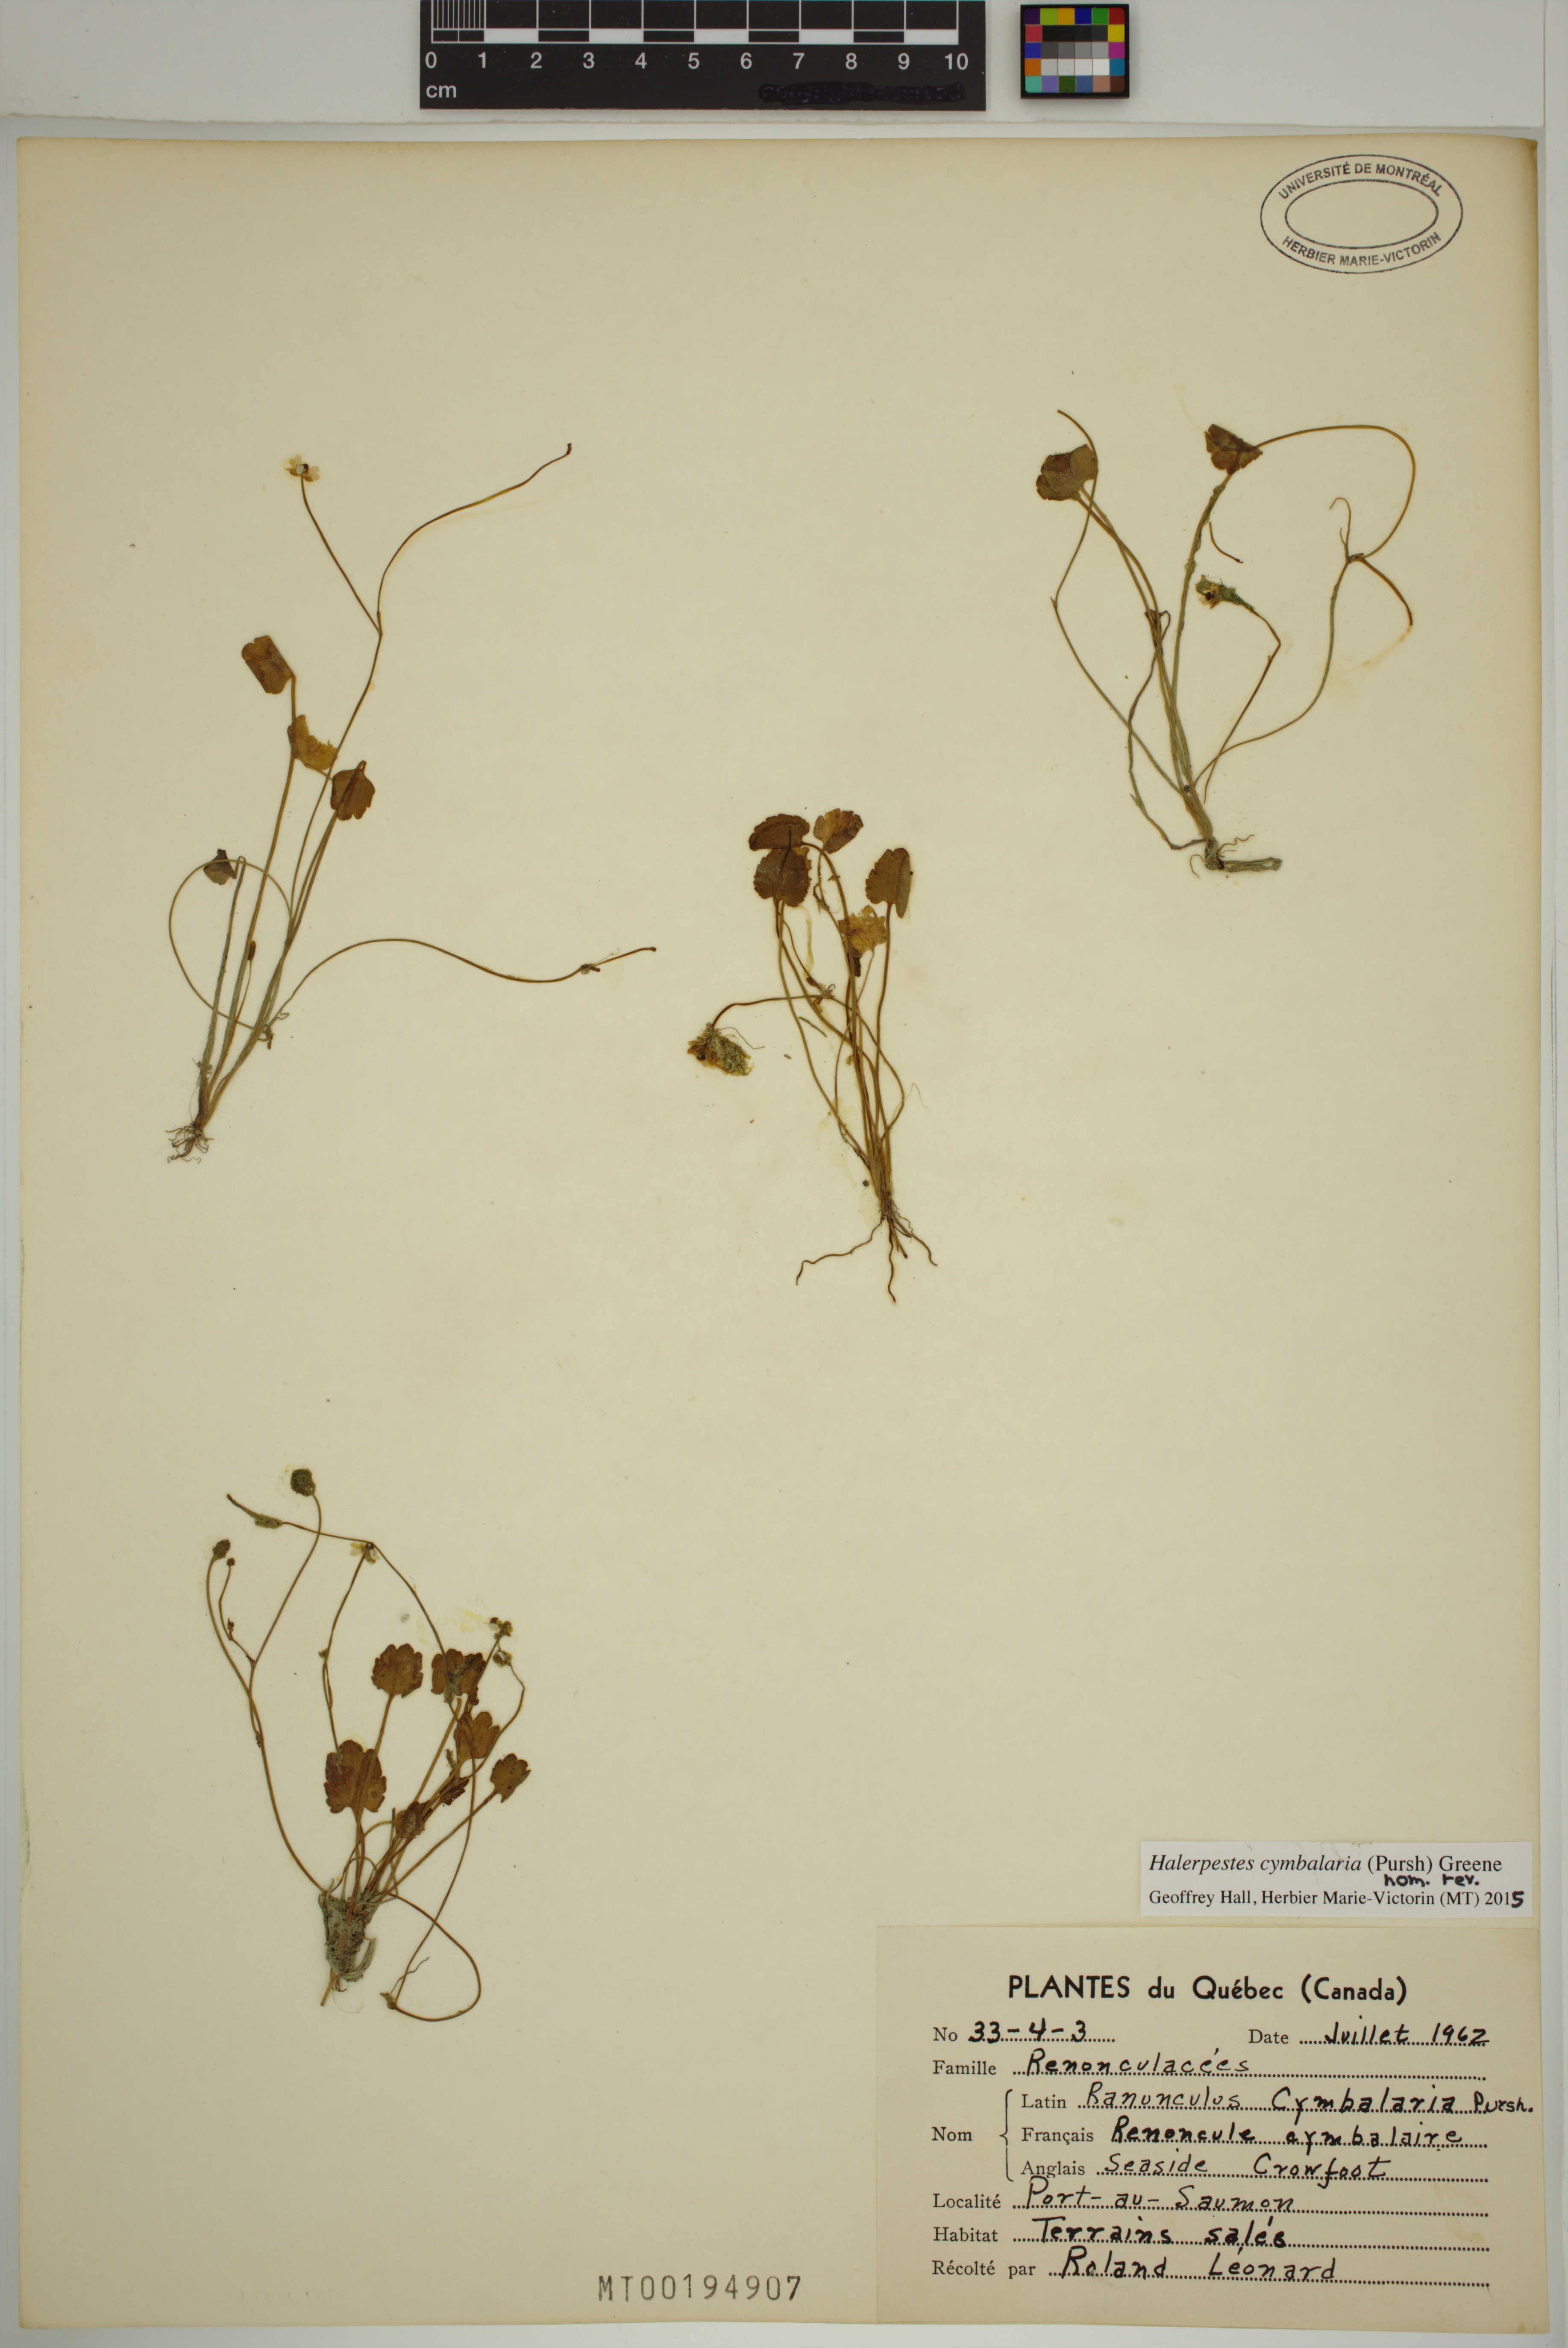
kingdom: Plantae
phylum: Tracheophyta
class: Magnoliopsida
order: Ranunculales
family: Ranunculaceae
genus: Halerpestes
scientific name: Halerpestes cymbalaria
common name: Seaside crowfoot
